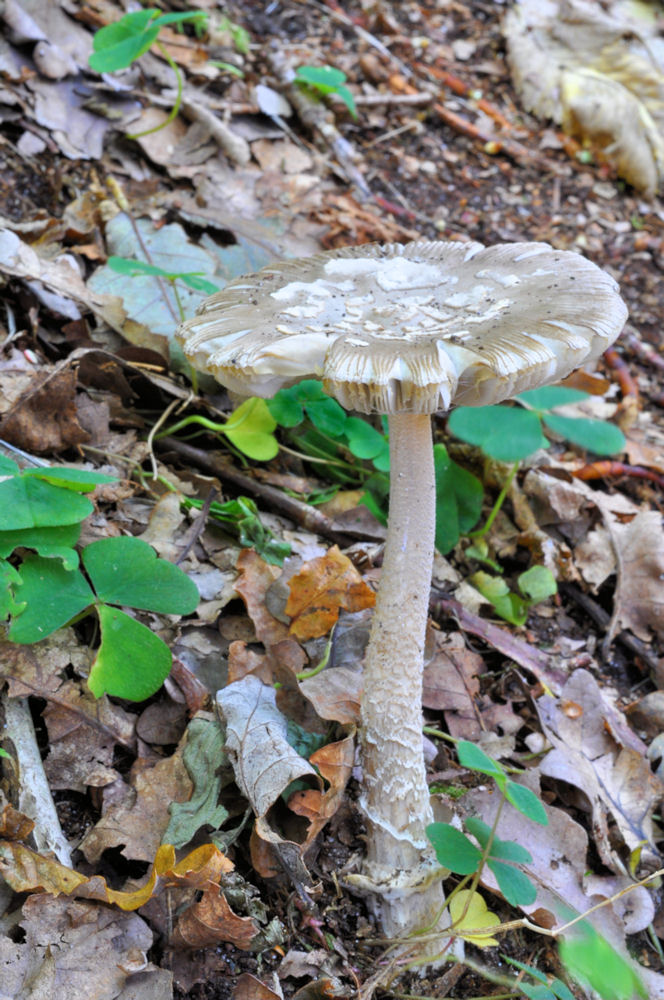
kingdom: Fungi
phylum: Basidiomycota
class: Agaricomycetes
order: Agaricales
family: Amanitaceae
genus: Amanita
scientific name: Amanita submembranacea
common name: gråspættet kam-fluesvamp
